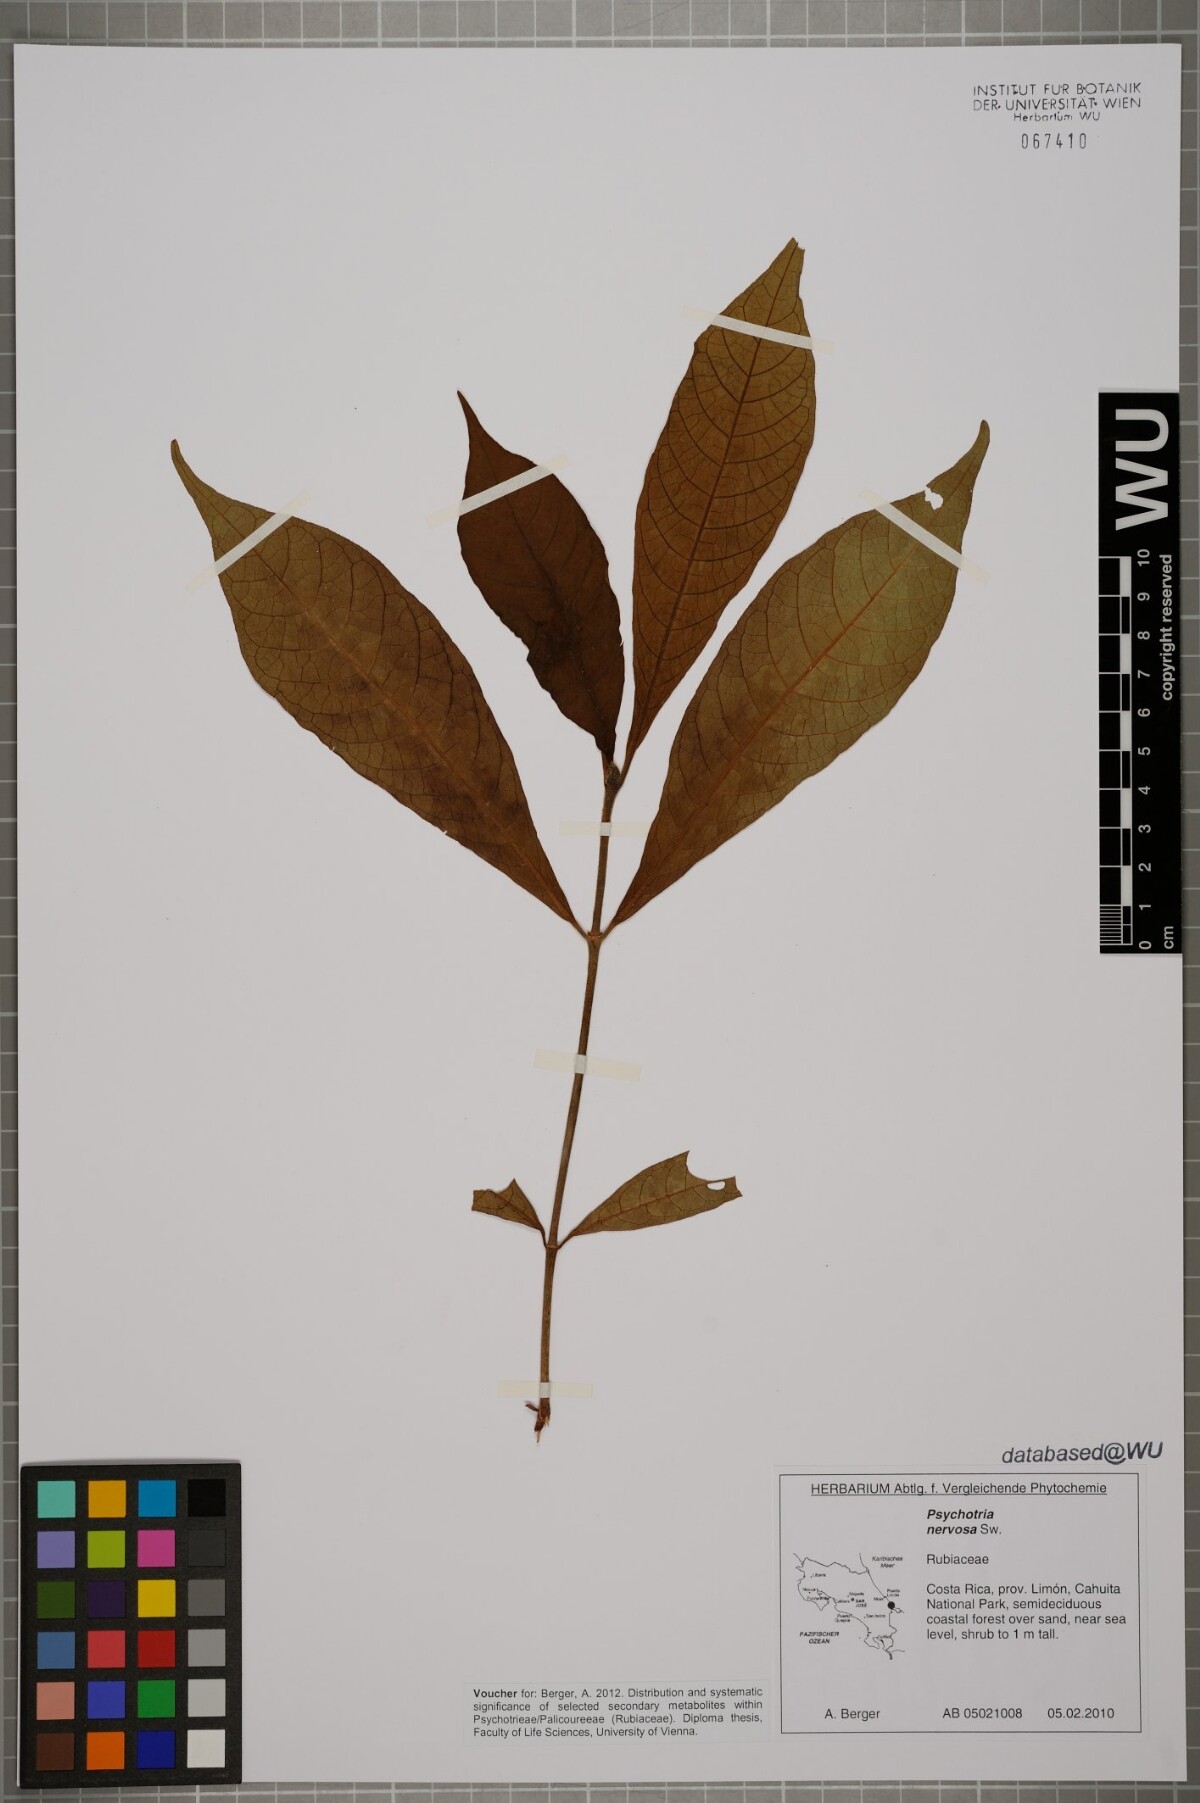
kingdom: Plantae
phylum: Tracheophyta
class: Magnoliopsida
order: Gentianales
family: Rubiaceae
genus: Psychotria
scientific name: Psychotria nervosa
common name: Bastard cankerberry
